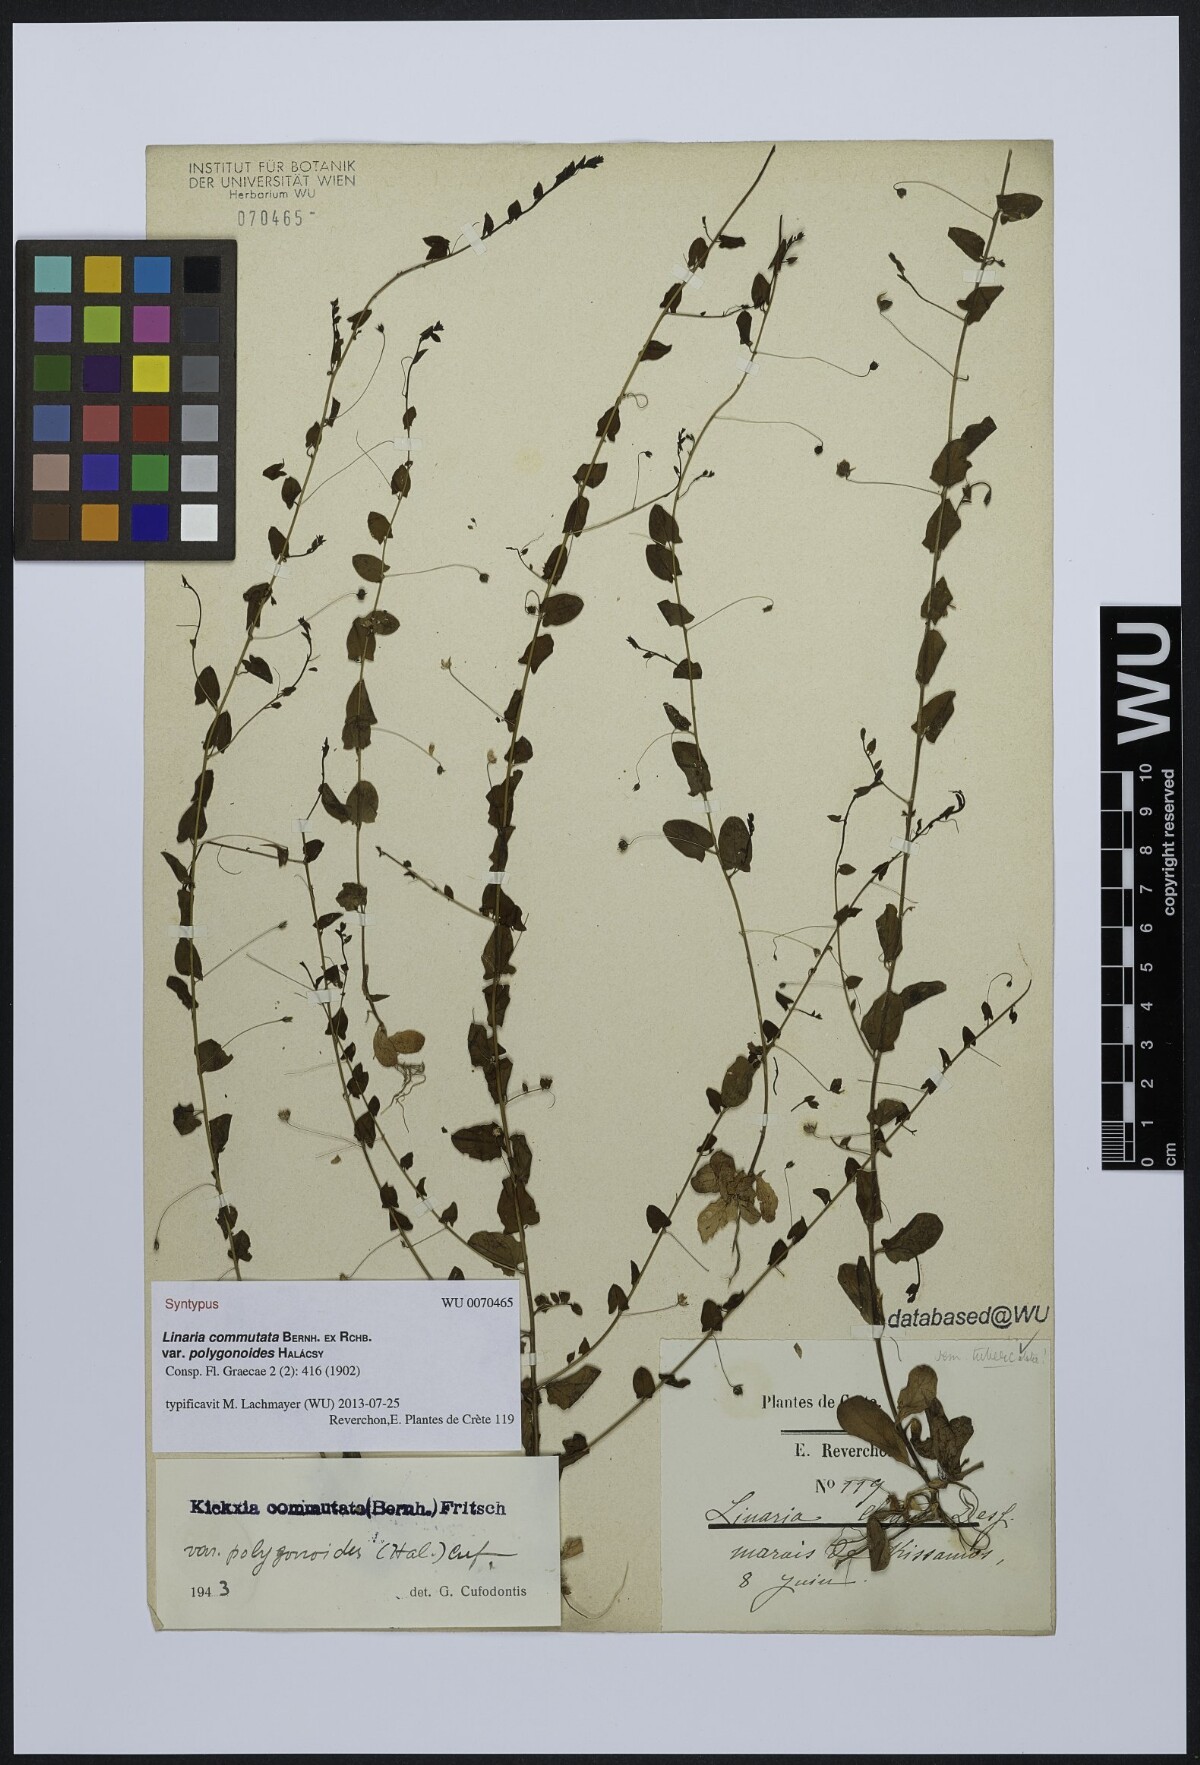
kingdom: Plantae
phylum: Tracheophyta
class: Magnoliopsida
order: Lamiales
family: Plantaginaceae
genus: Kickxia
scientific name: Kickxia commutata
